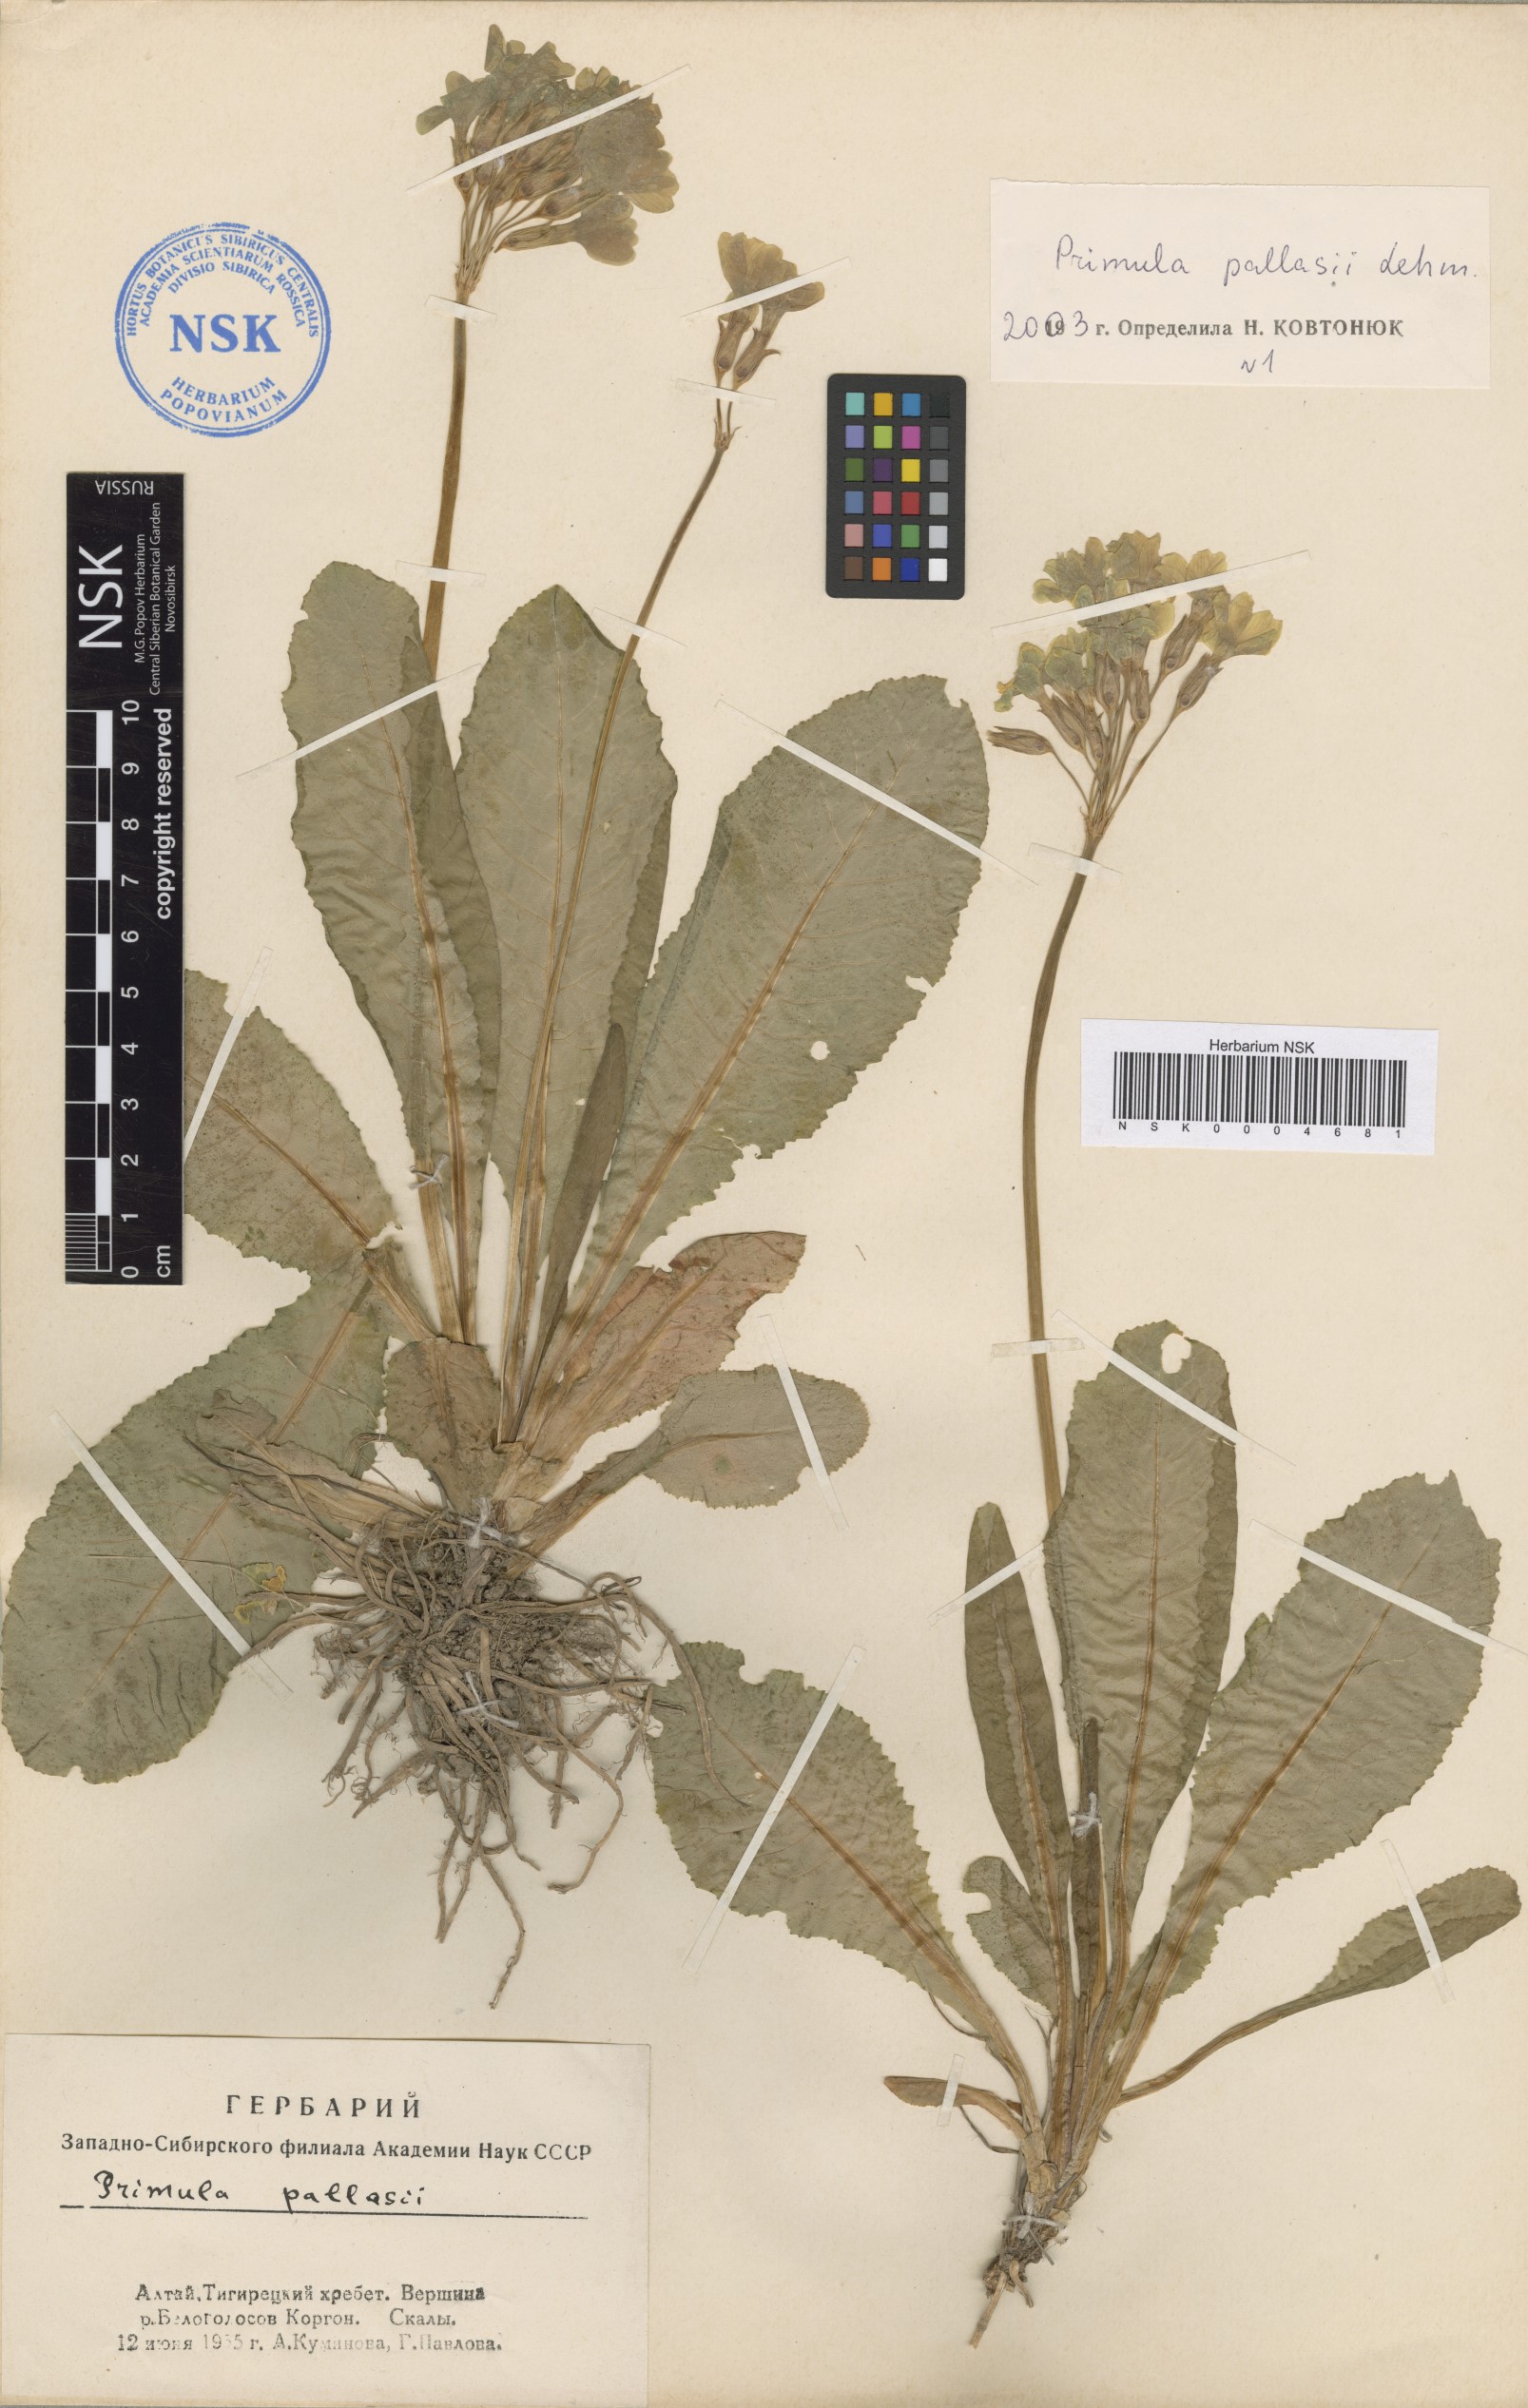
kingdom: Plantae
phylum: Tracheophyta
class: Magnoliopsida
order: Ericales
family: Primulaceae
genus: Primula
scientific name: Primula elatior
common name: Oxlip
